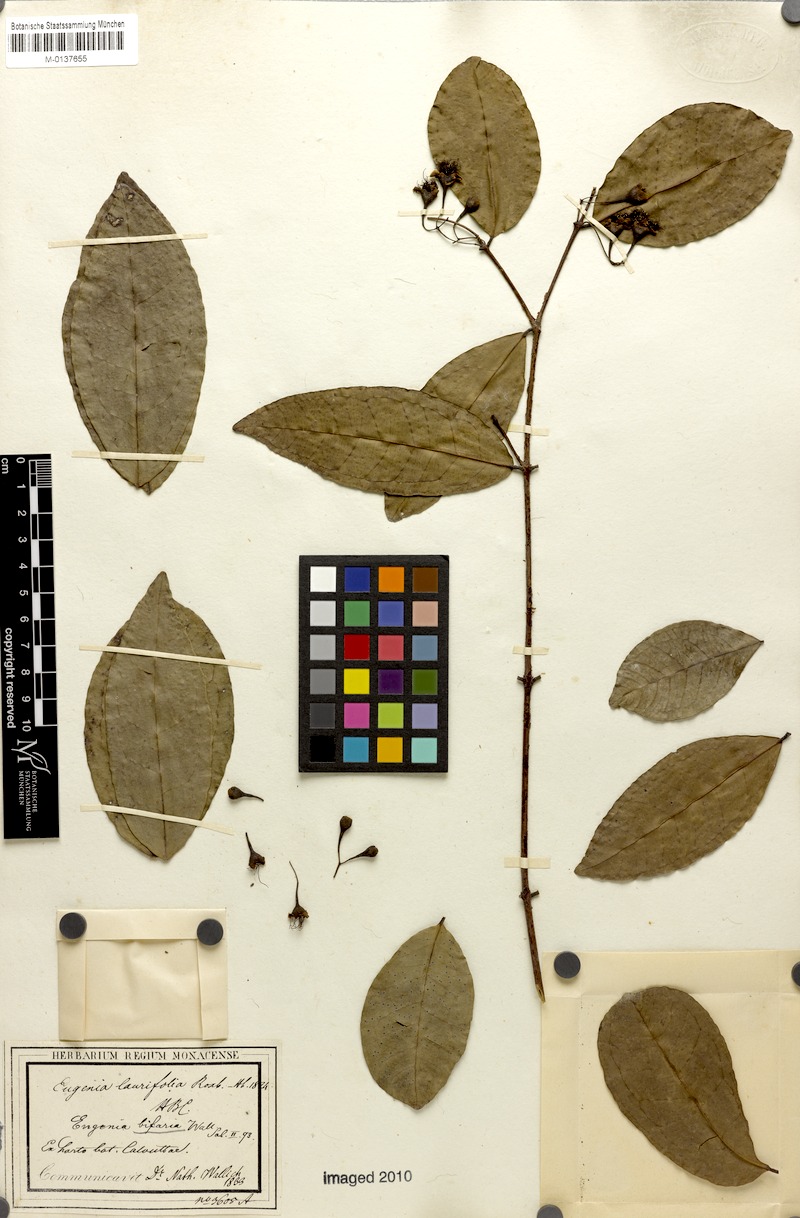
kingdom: Plantae
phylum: Tracheophyta
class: Magnoliopsida
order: Myrtales
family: Myrtaceae
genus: Syzygium
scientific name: Syzygium laurifolium
